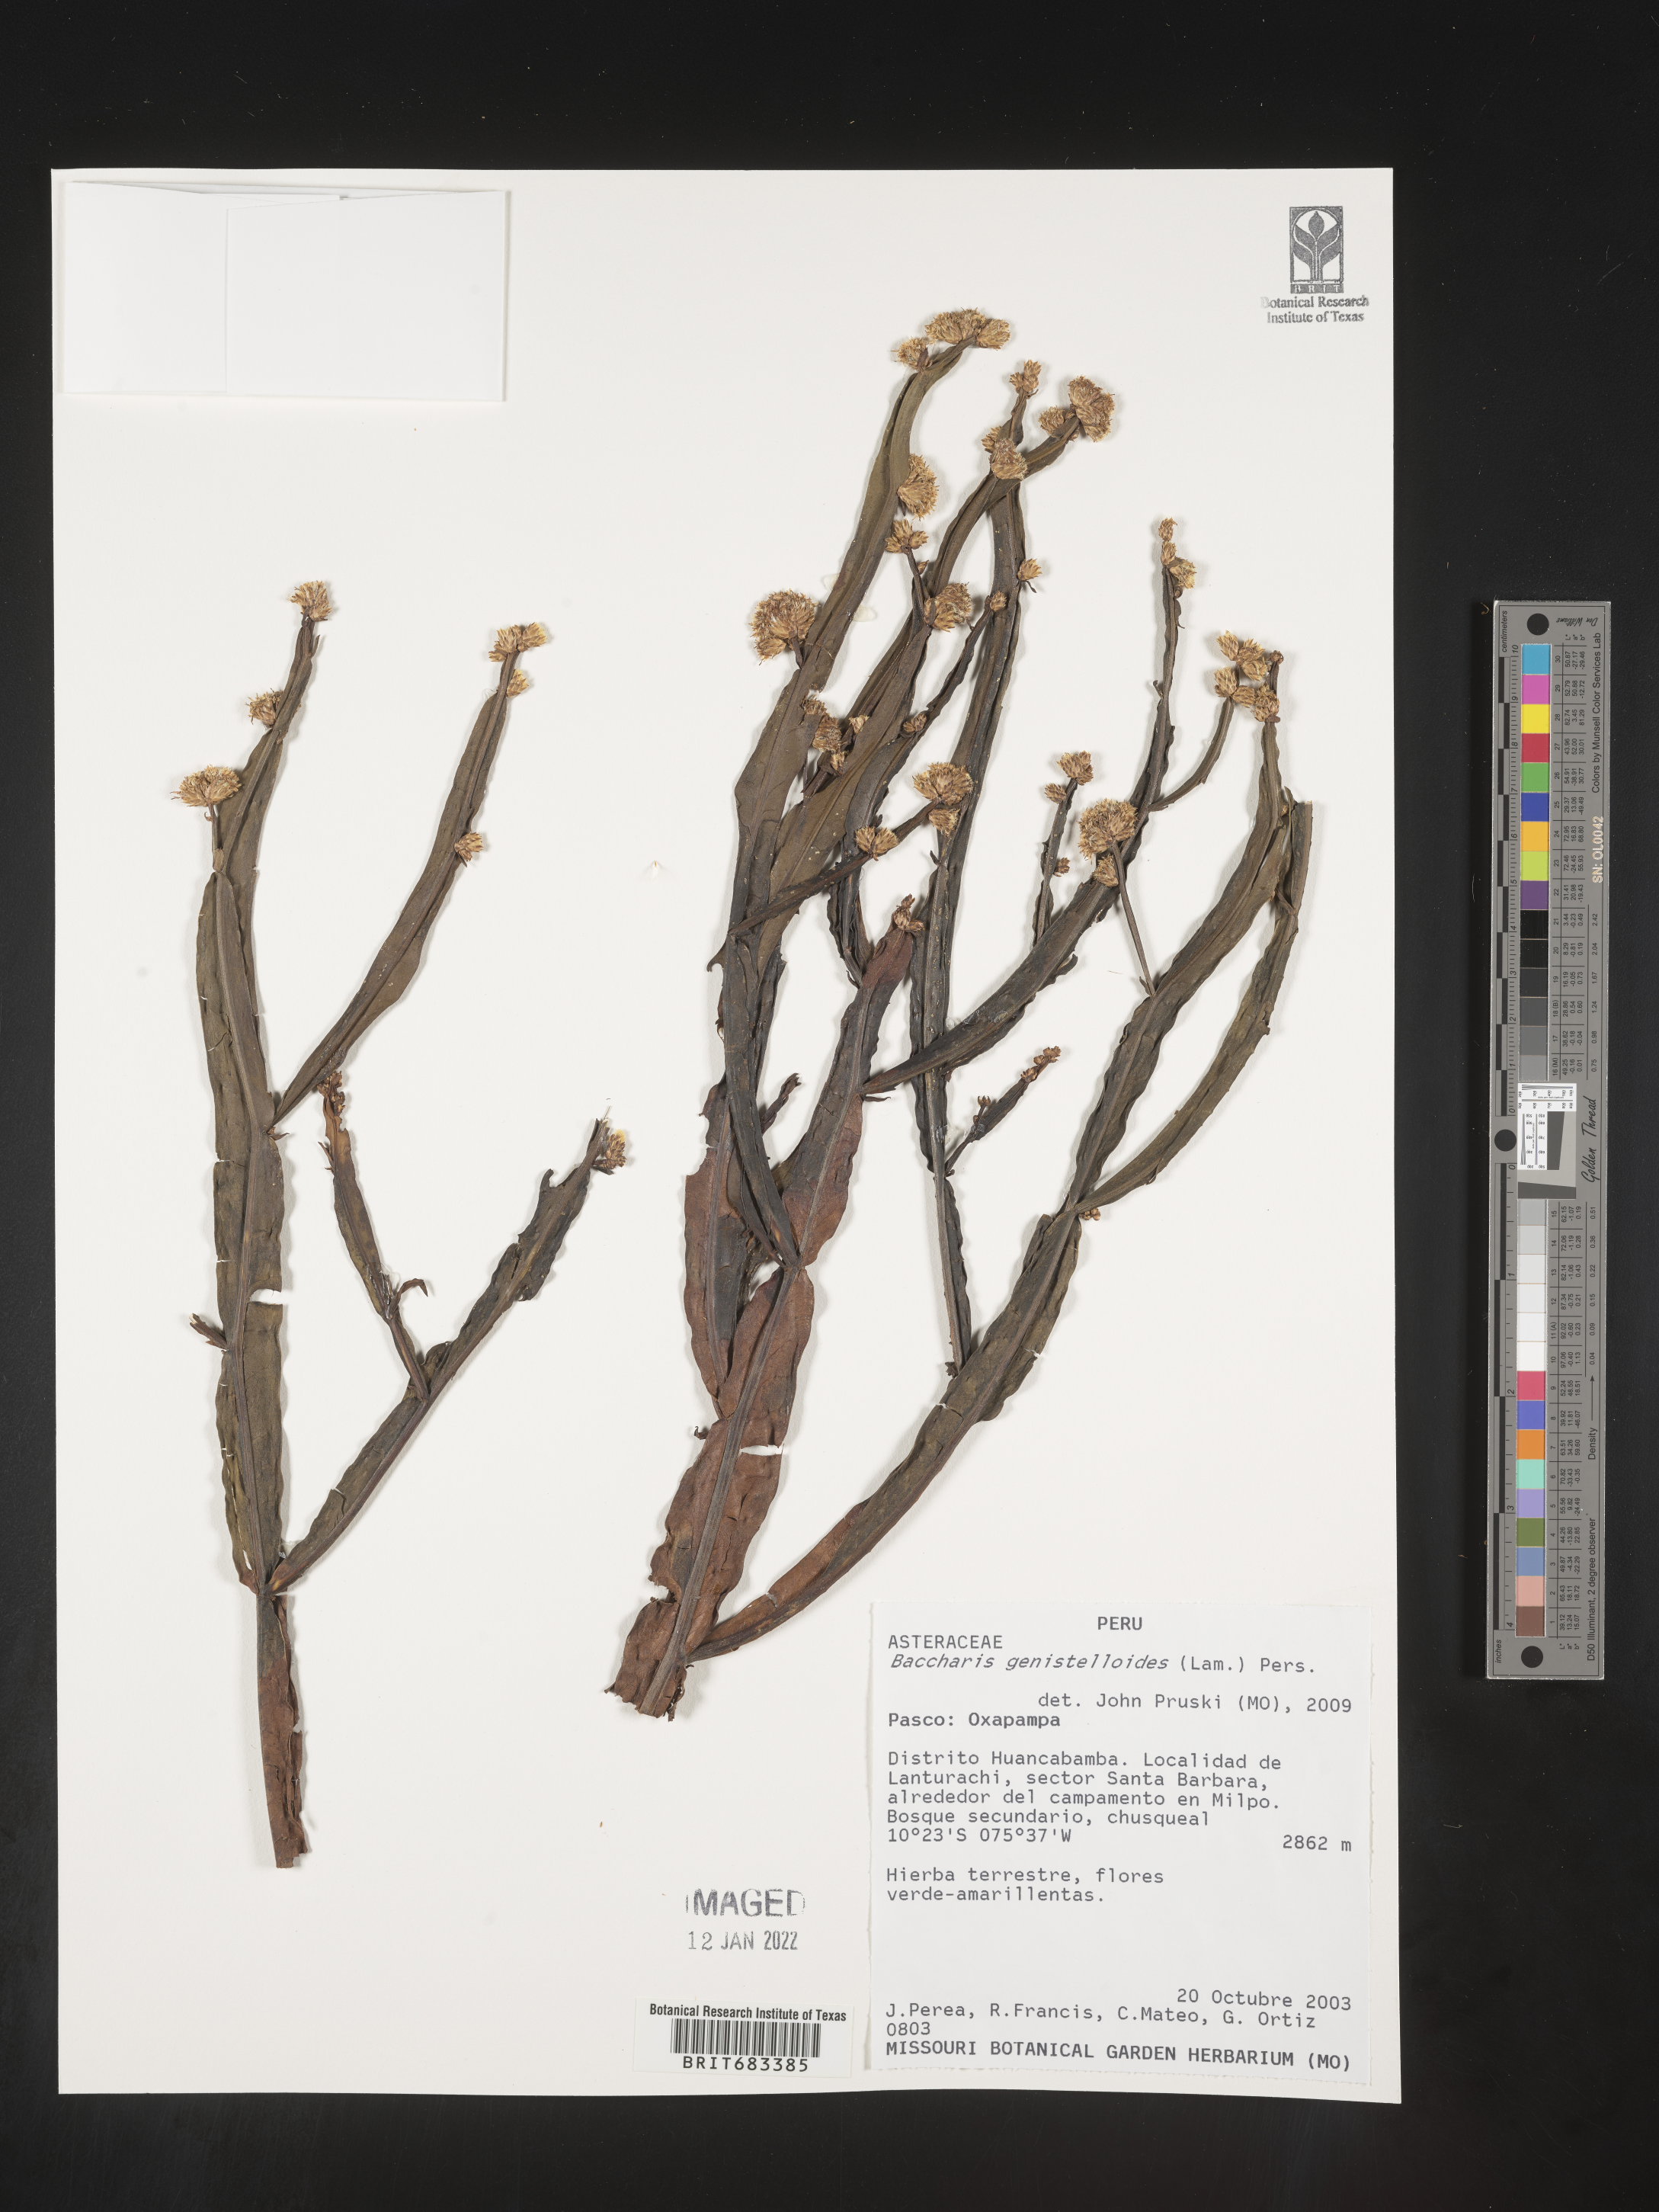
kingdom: Plantae
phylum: Tracheophyta
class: Magnoliopsida
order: Asterales
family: Asteraceae
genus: Baccharis
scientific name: Baccharis
